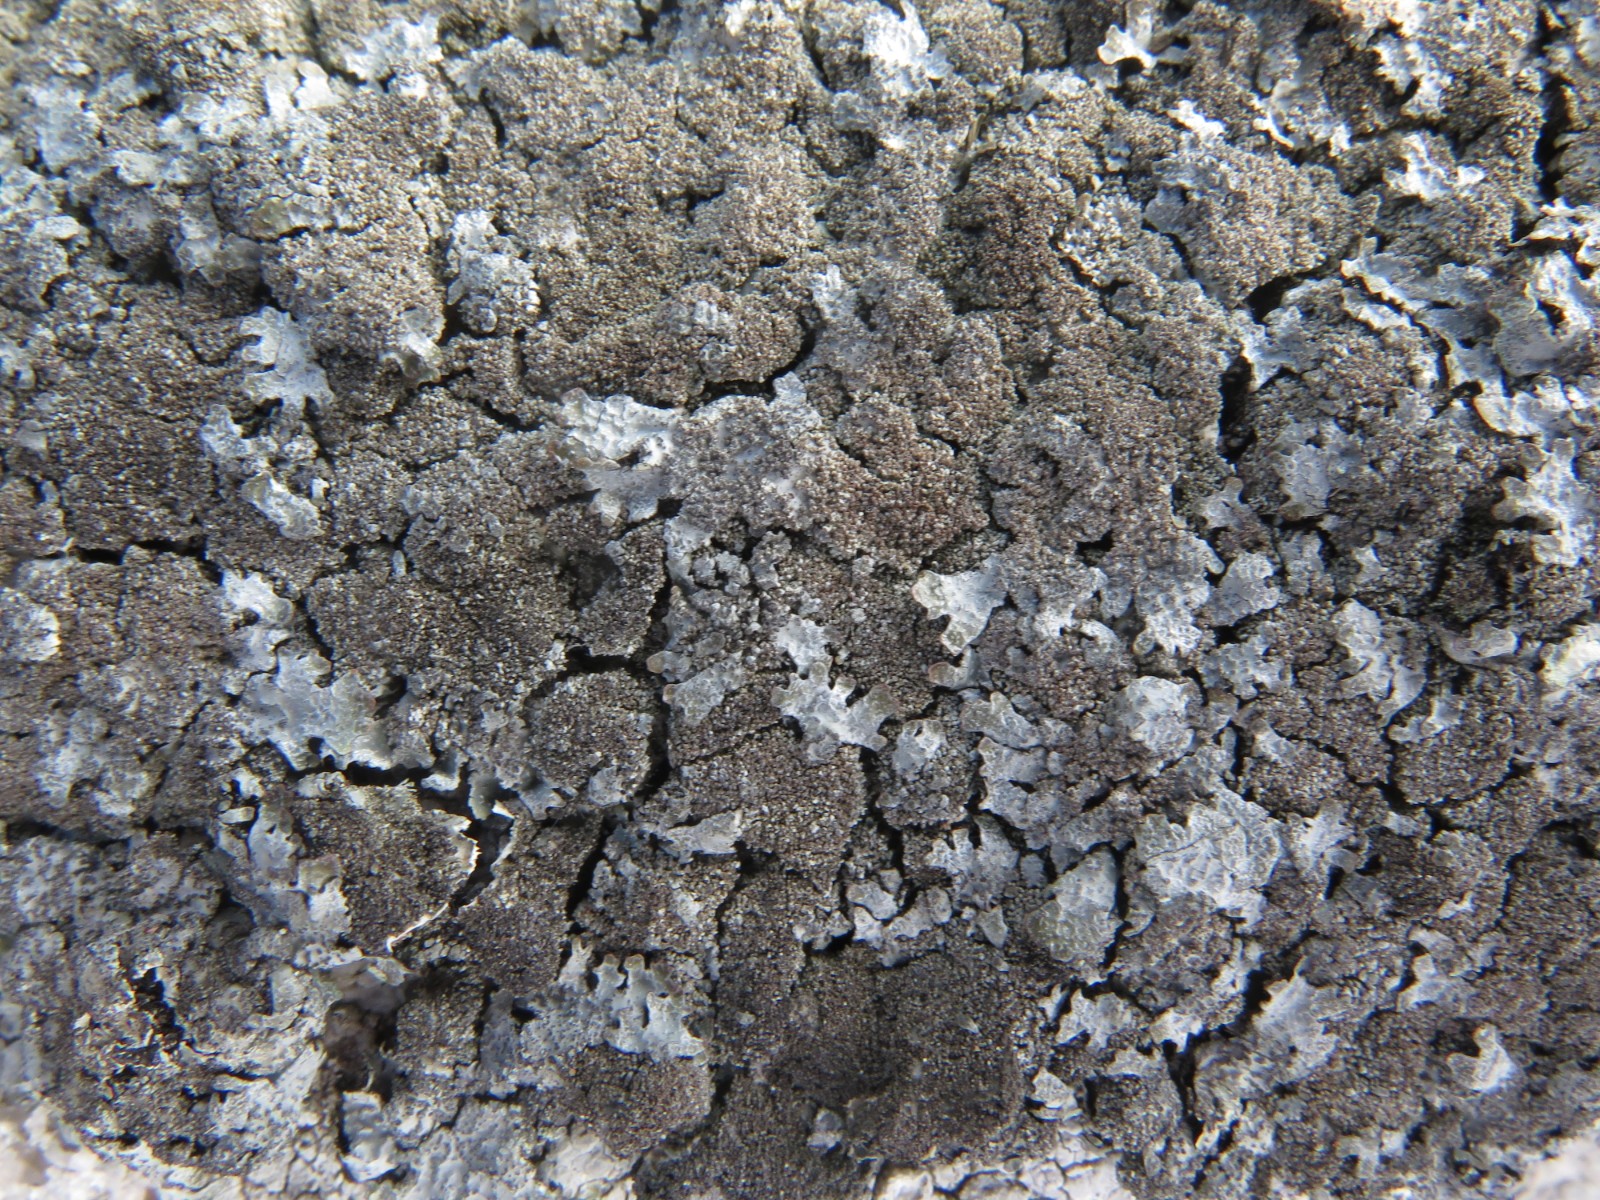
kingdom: Fungi
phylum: Ascomycota
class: Lecanoromycetes
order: Lecanorales
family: Parmeliaceae
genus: Parmelia
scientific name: Parmelia saxatilis
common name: farve-skållav
